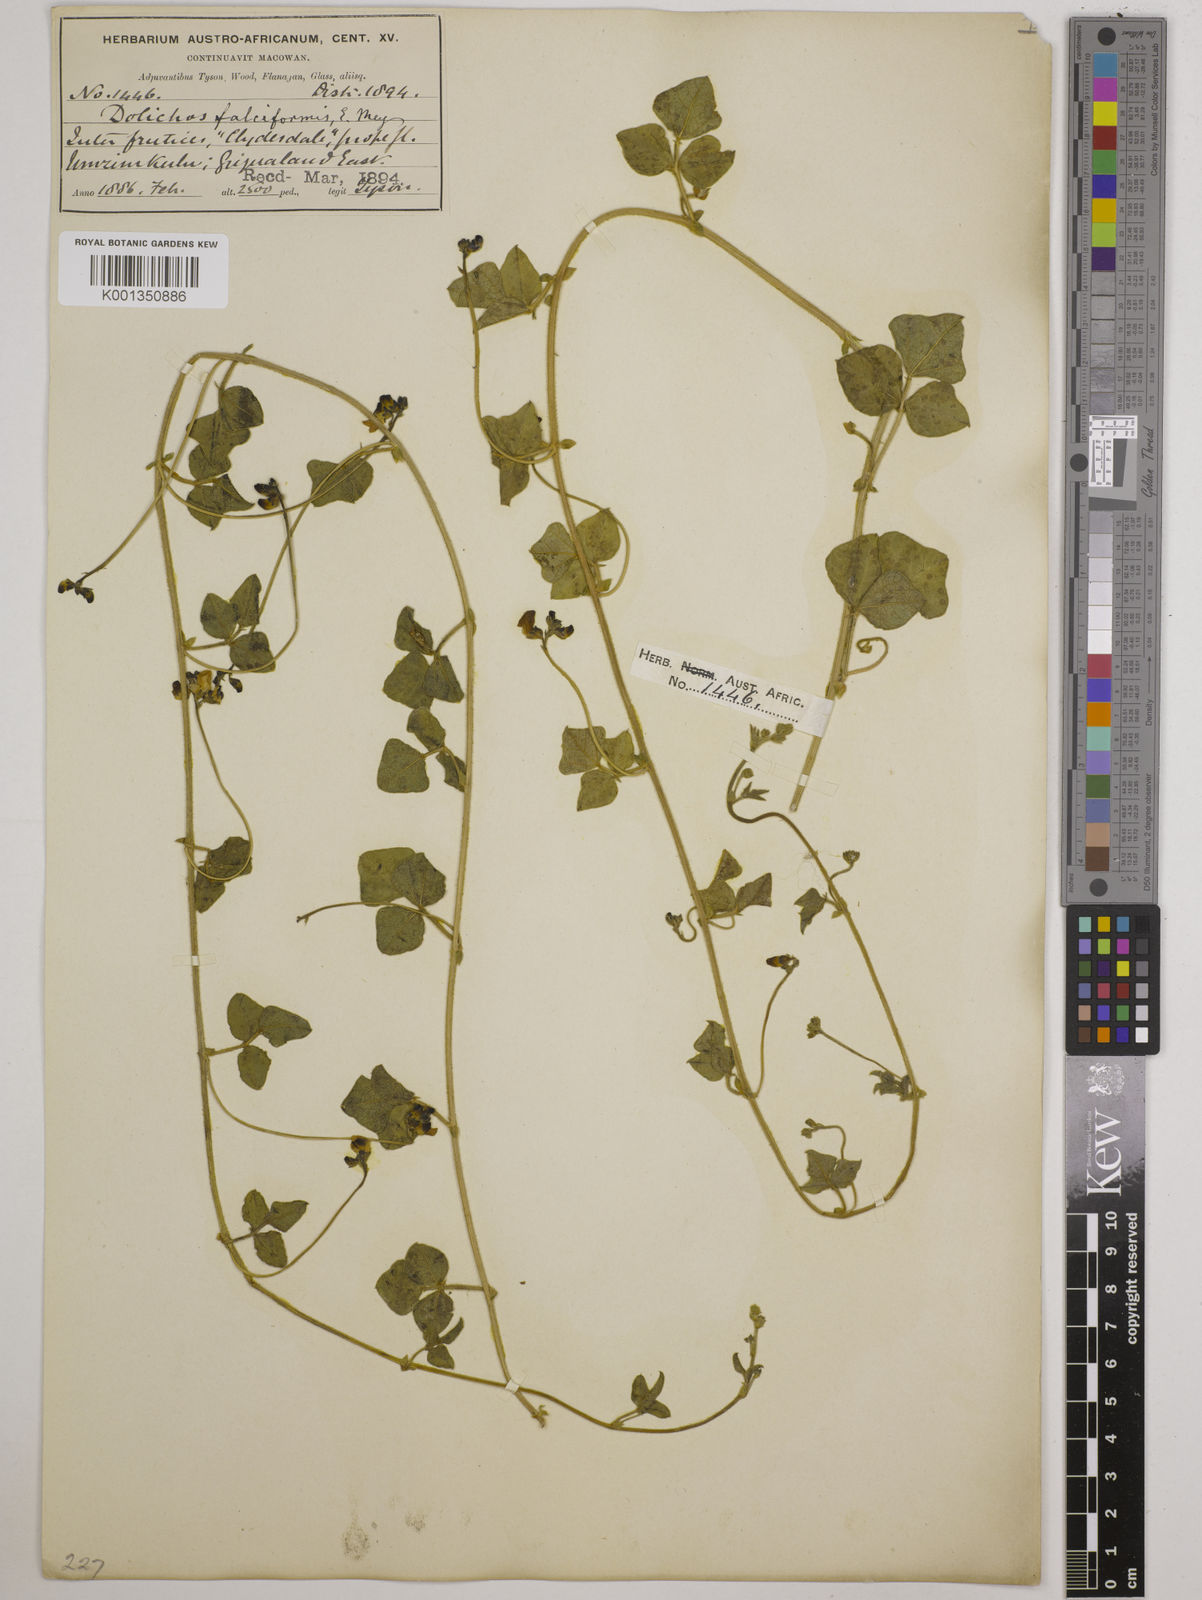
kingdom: Plantae
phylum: Tracheophyta
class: Magnoliopsida
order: Fabales
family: Fabaceae
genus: Dolichos
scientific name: Dolichos falciformis
